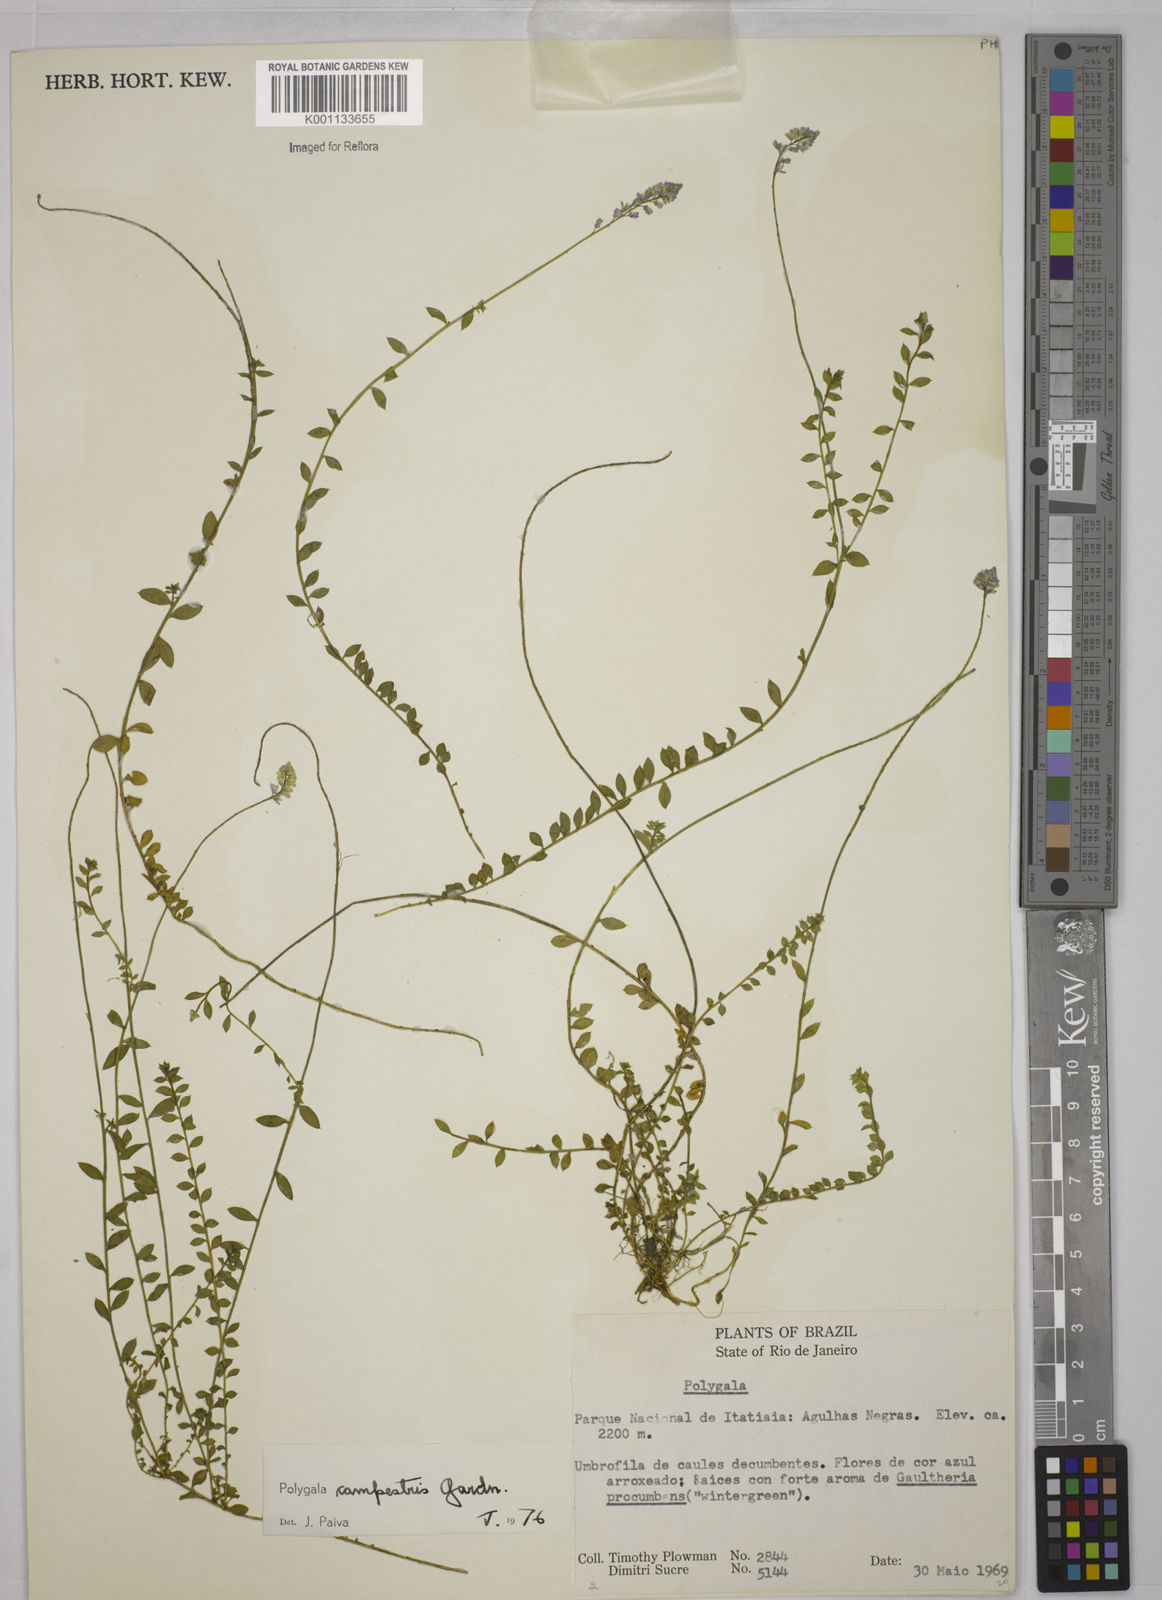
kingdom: Plantae
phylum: Tracheophyta
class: Magnoliopsida
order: Fabales
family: Polygalaceae
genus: Polygala
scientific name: Polygala campestris
